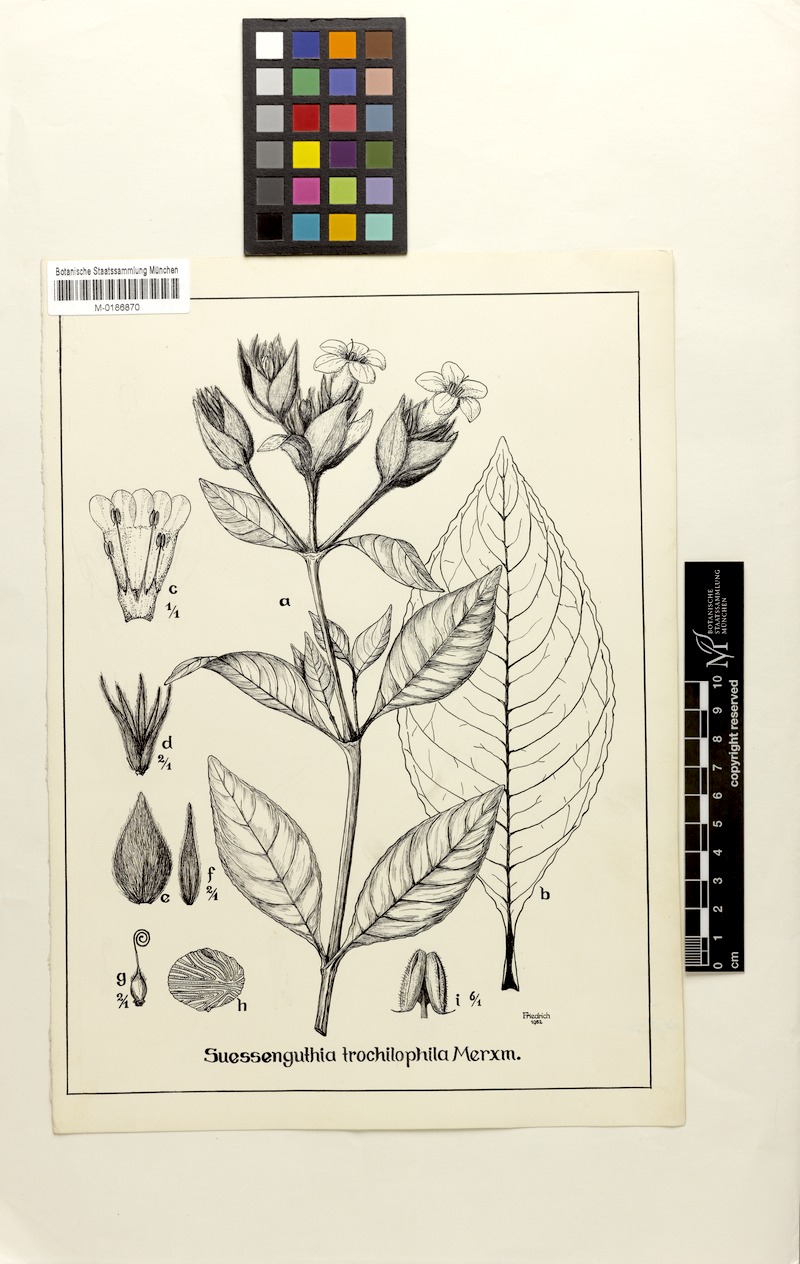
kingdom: Plantae
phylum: Tracheophyta
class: Magnoliopsida
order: Lamiales
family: Acanthaceae
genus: Suessenguthia
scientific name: Suessenguthia trochilophila
